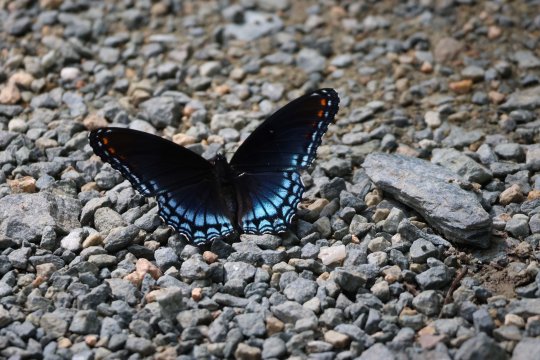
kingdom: Animalia
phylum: Arthropoda
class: Insecta
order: Lepidoptera
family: Nymphalidae
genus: Limenitis
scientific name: Limenitis arthemis
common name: Red-spotted Admiral
